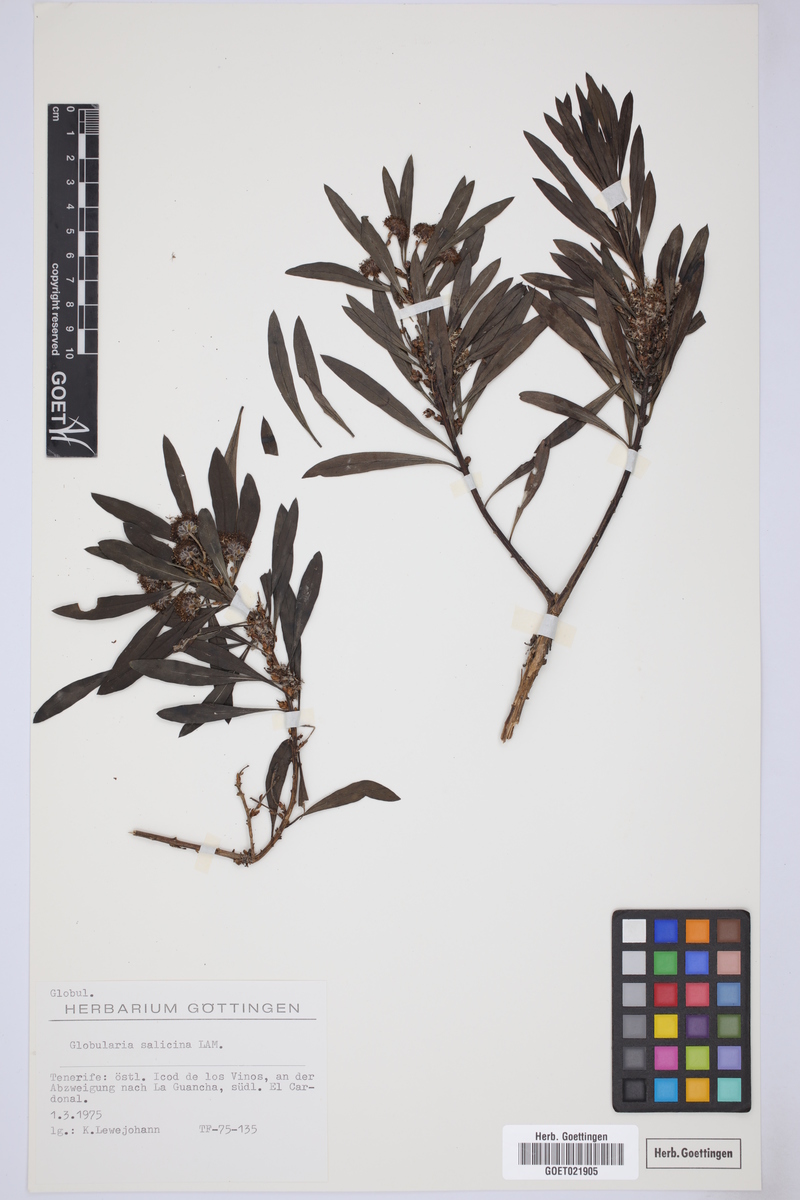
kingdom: Plantae
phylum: Tracheophyta
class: Magnoliopsida
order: Lamiales
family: Plantaginaceae
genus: Globularia
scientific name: Globularia salicina
